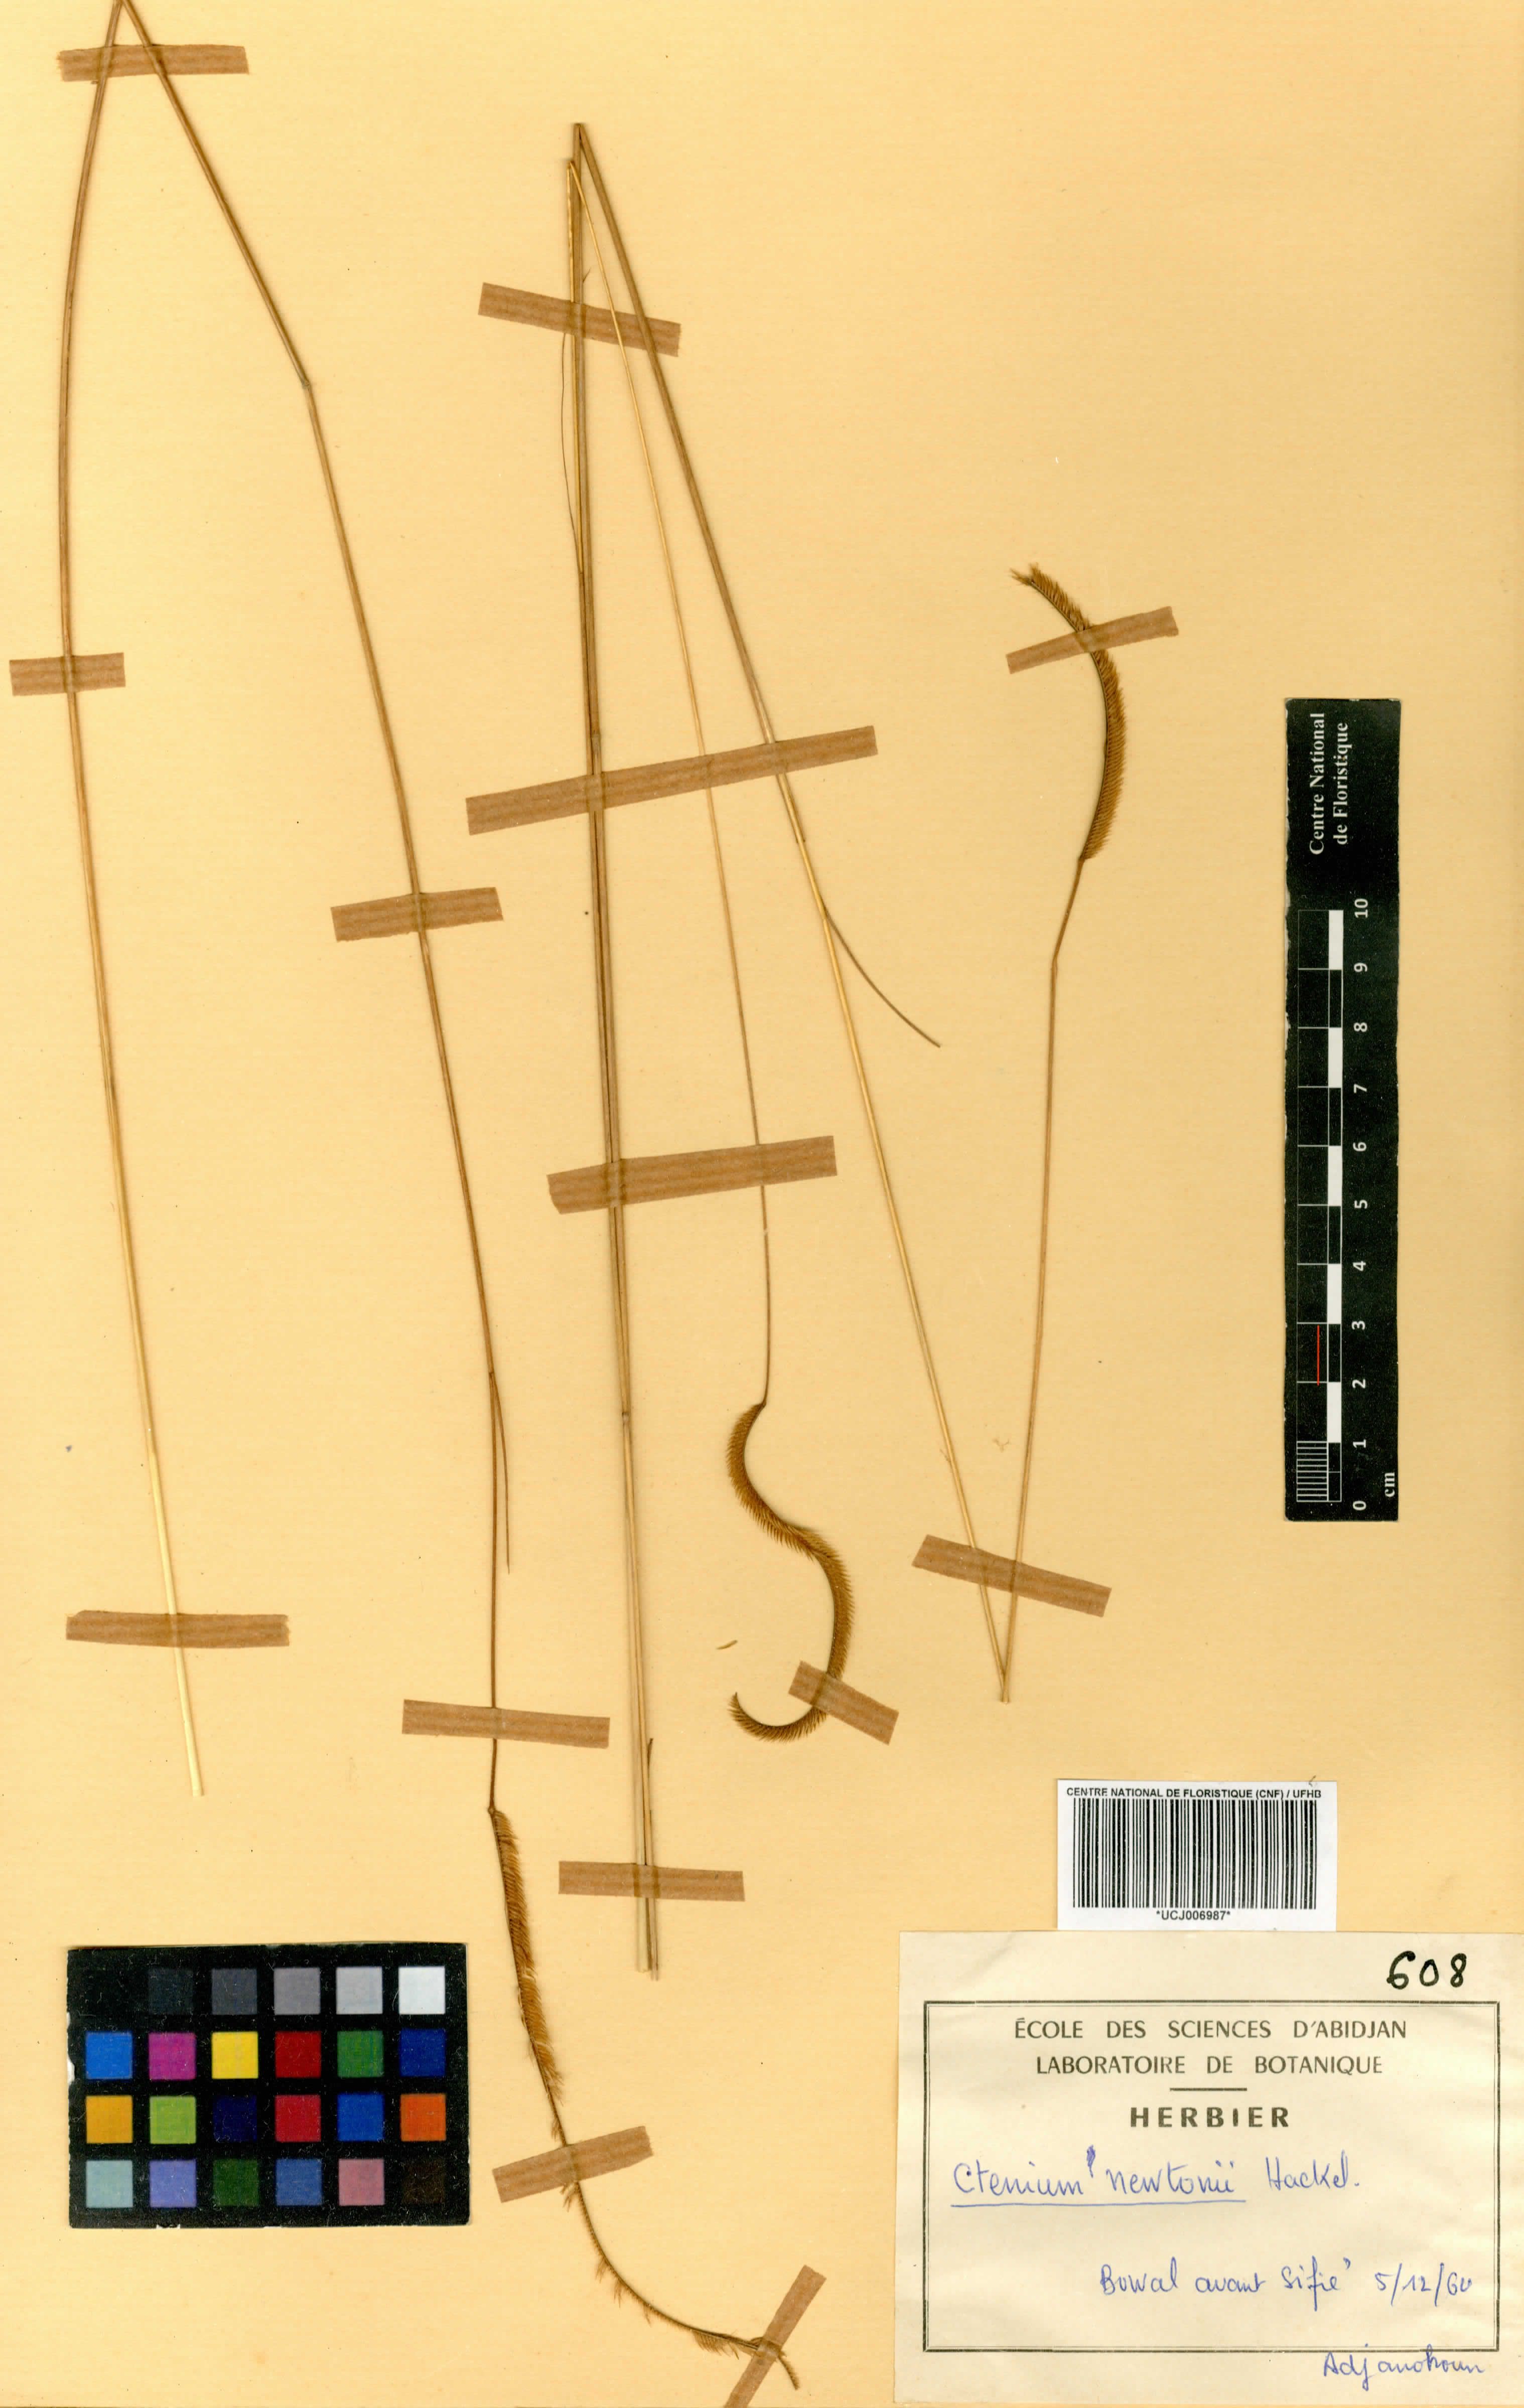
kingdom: Plantae
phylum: Tracheophyta
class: Liliopsida
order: Poales
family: Poaceae
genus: Ctenium
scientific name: Ctenium newtonii
